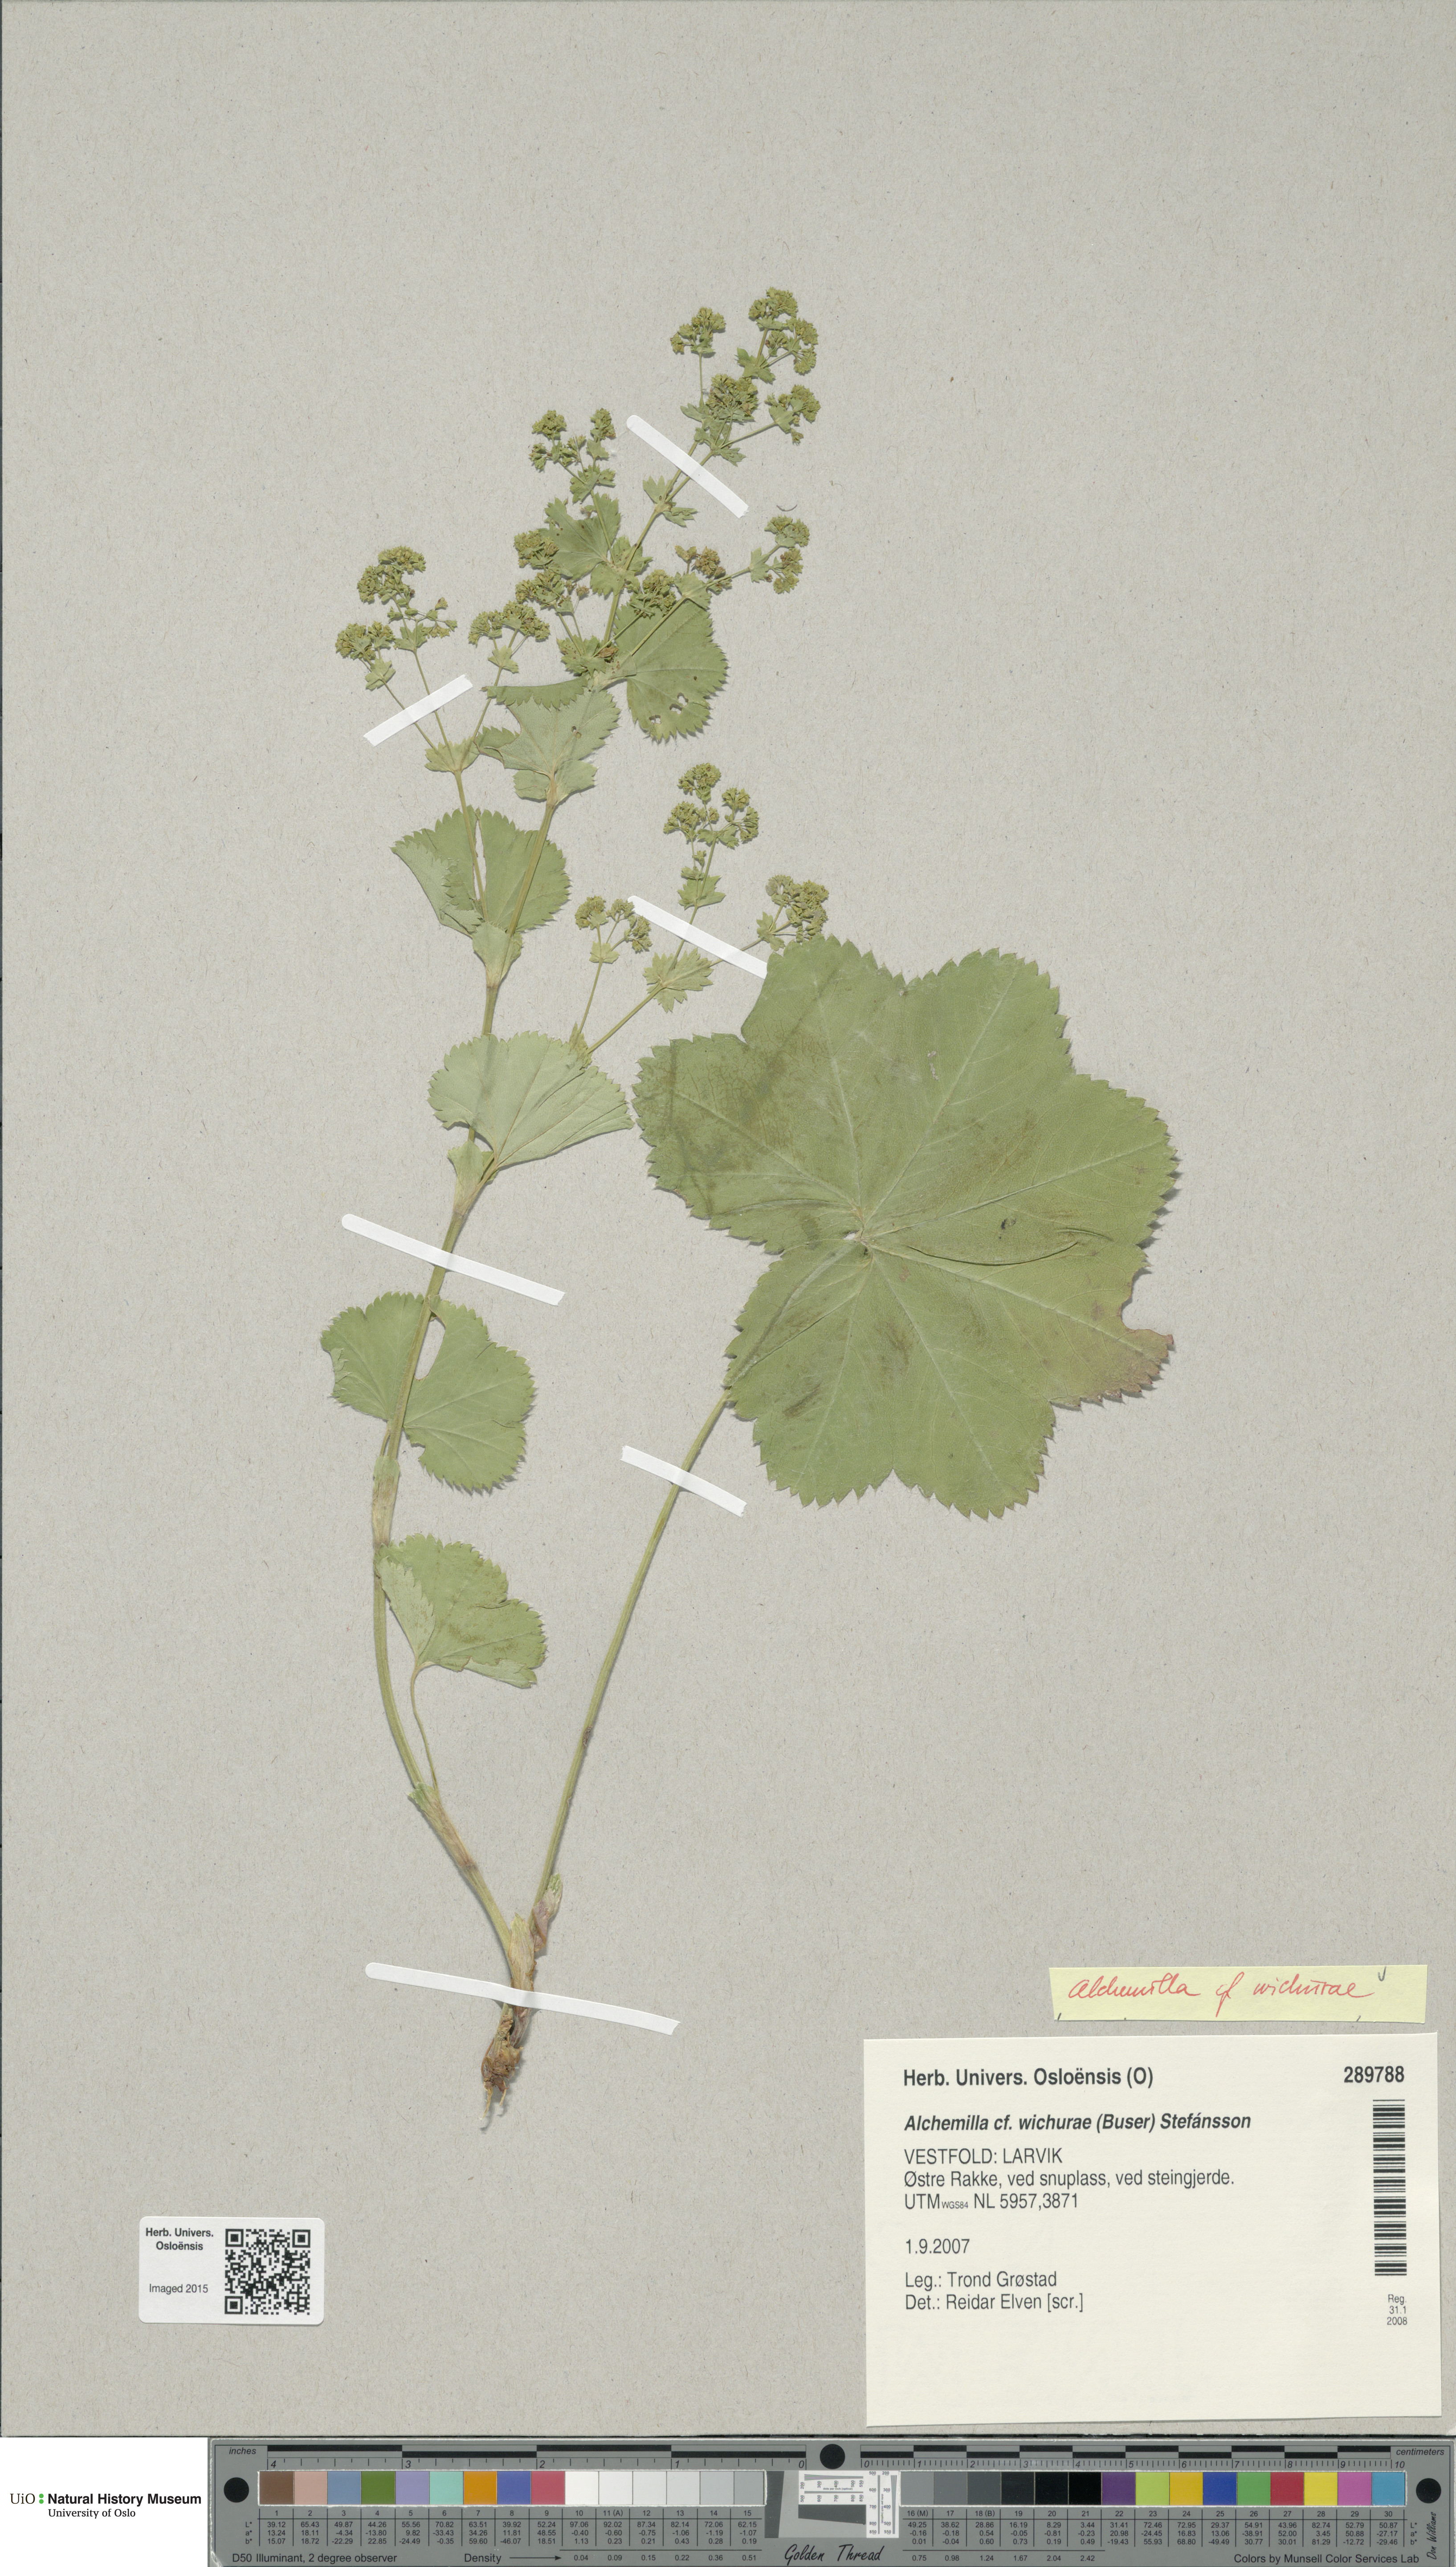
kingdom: Plantae
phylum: Tracheophyta
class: Magnoliopsida
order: Rosales
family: Rosaceae
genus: Alchemilla
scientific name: Alchemilla wichurae
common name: Rock lady's mantle
